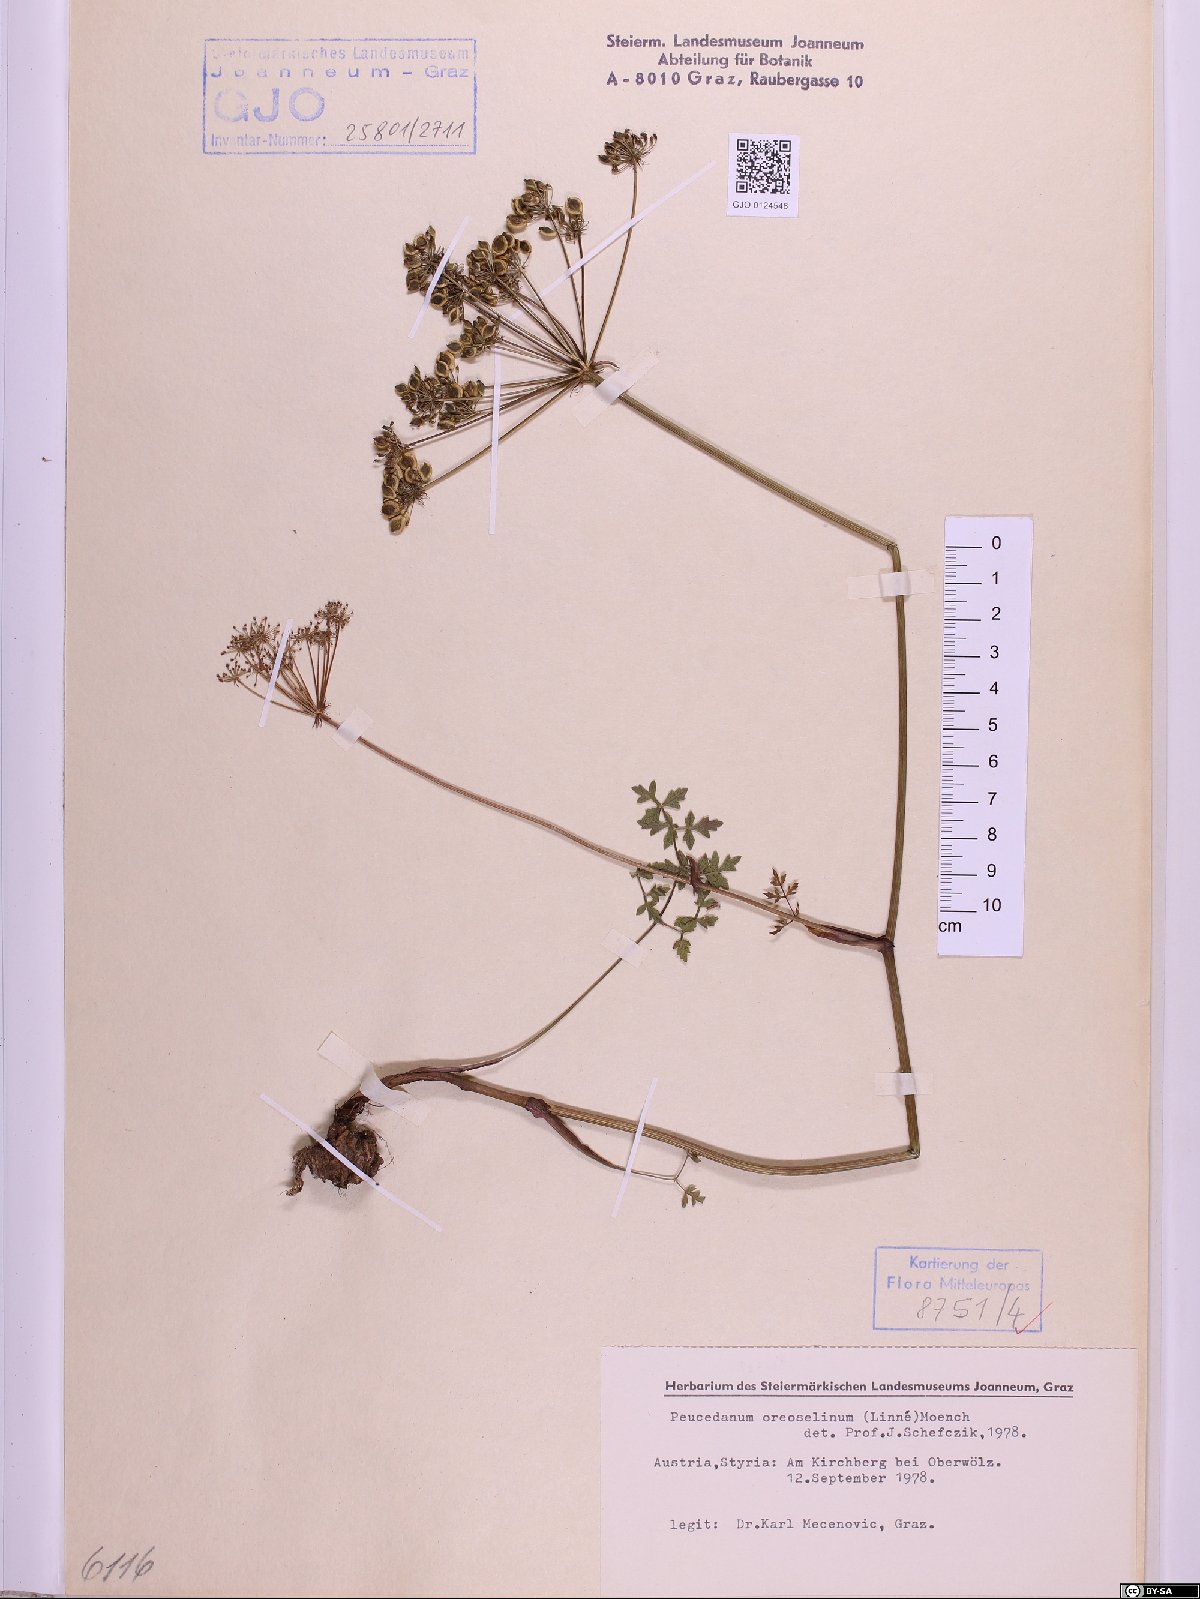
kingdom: Plantae
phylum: Tracheophyta
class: Magnoliopsida
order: Apiales
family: Apiaceae
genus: Oreoselinum
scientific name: Oreoselinum nigrum
